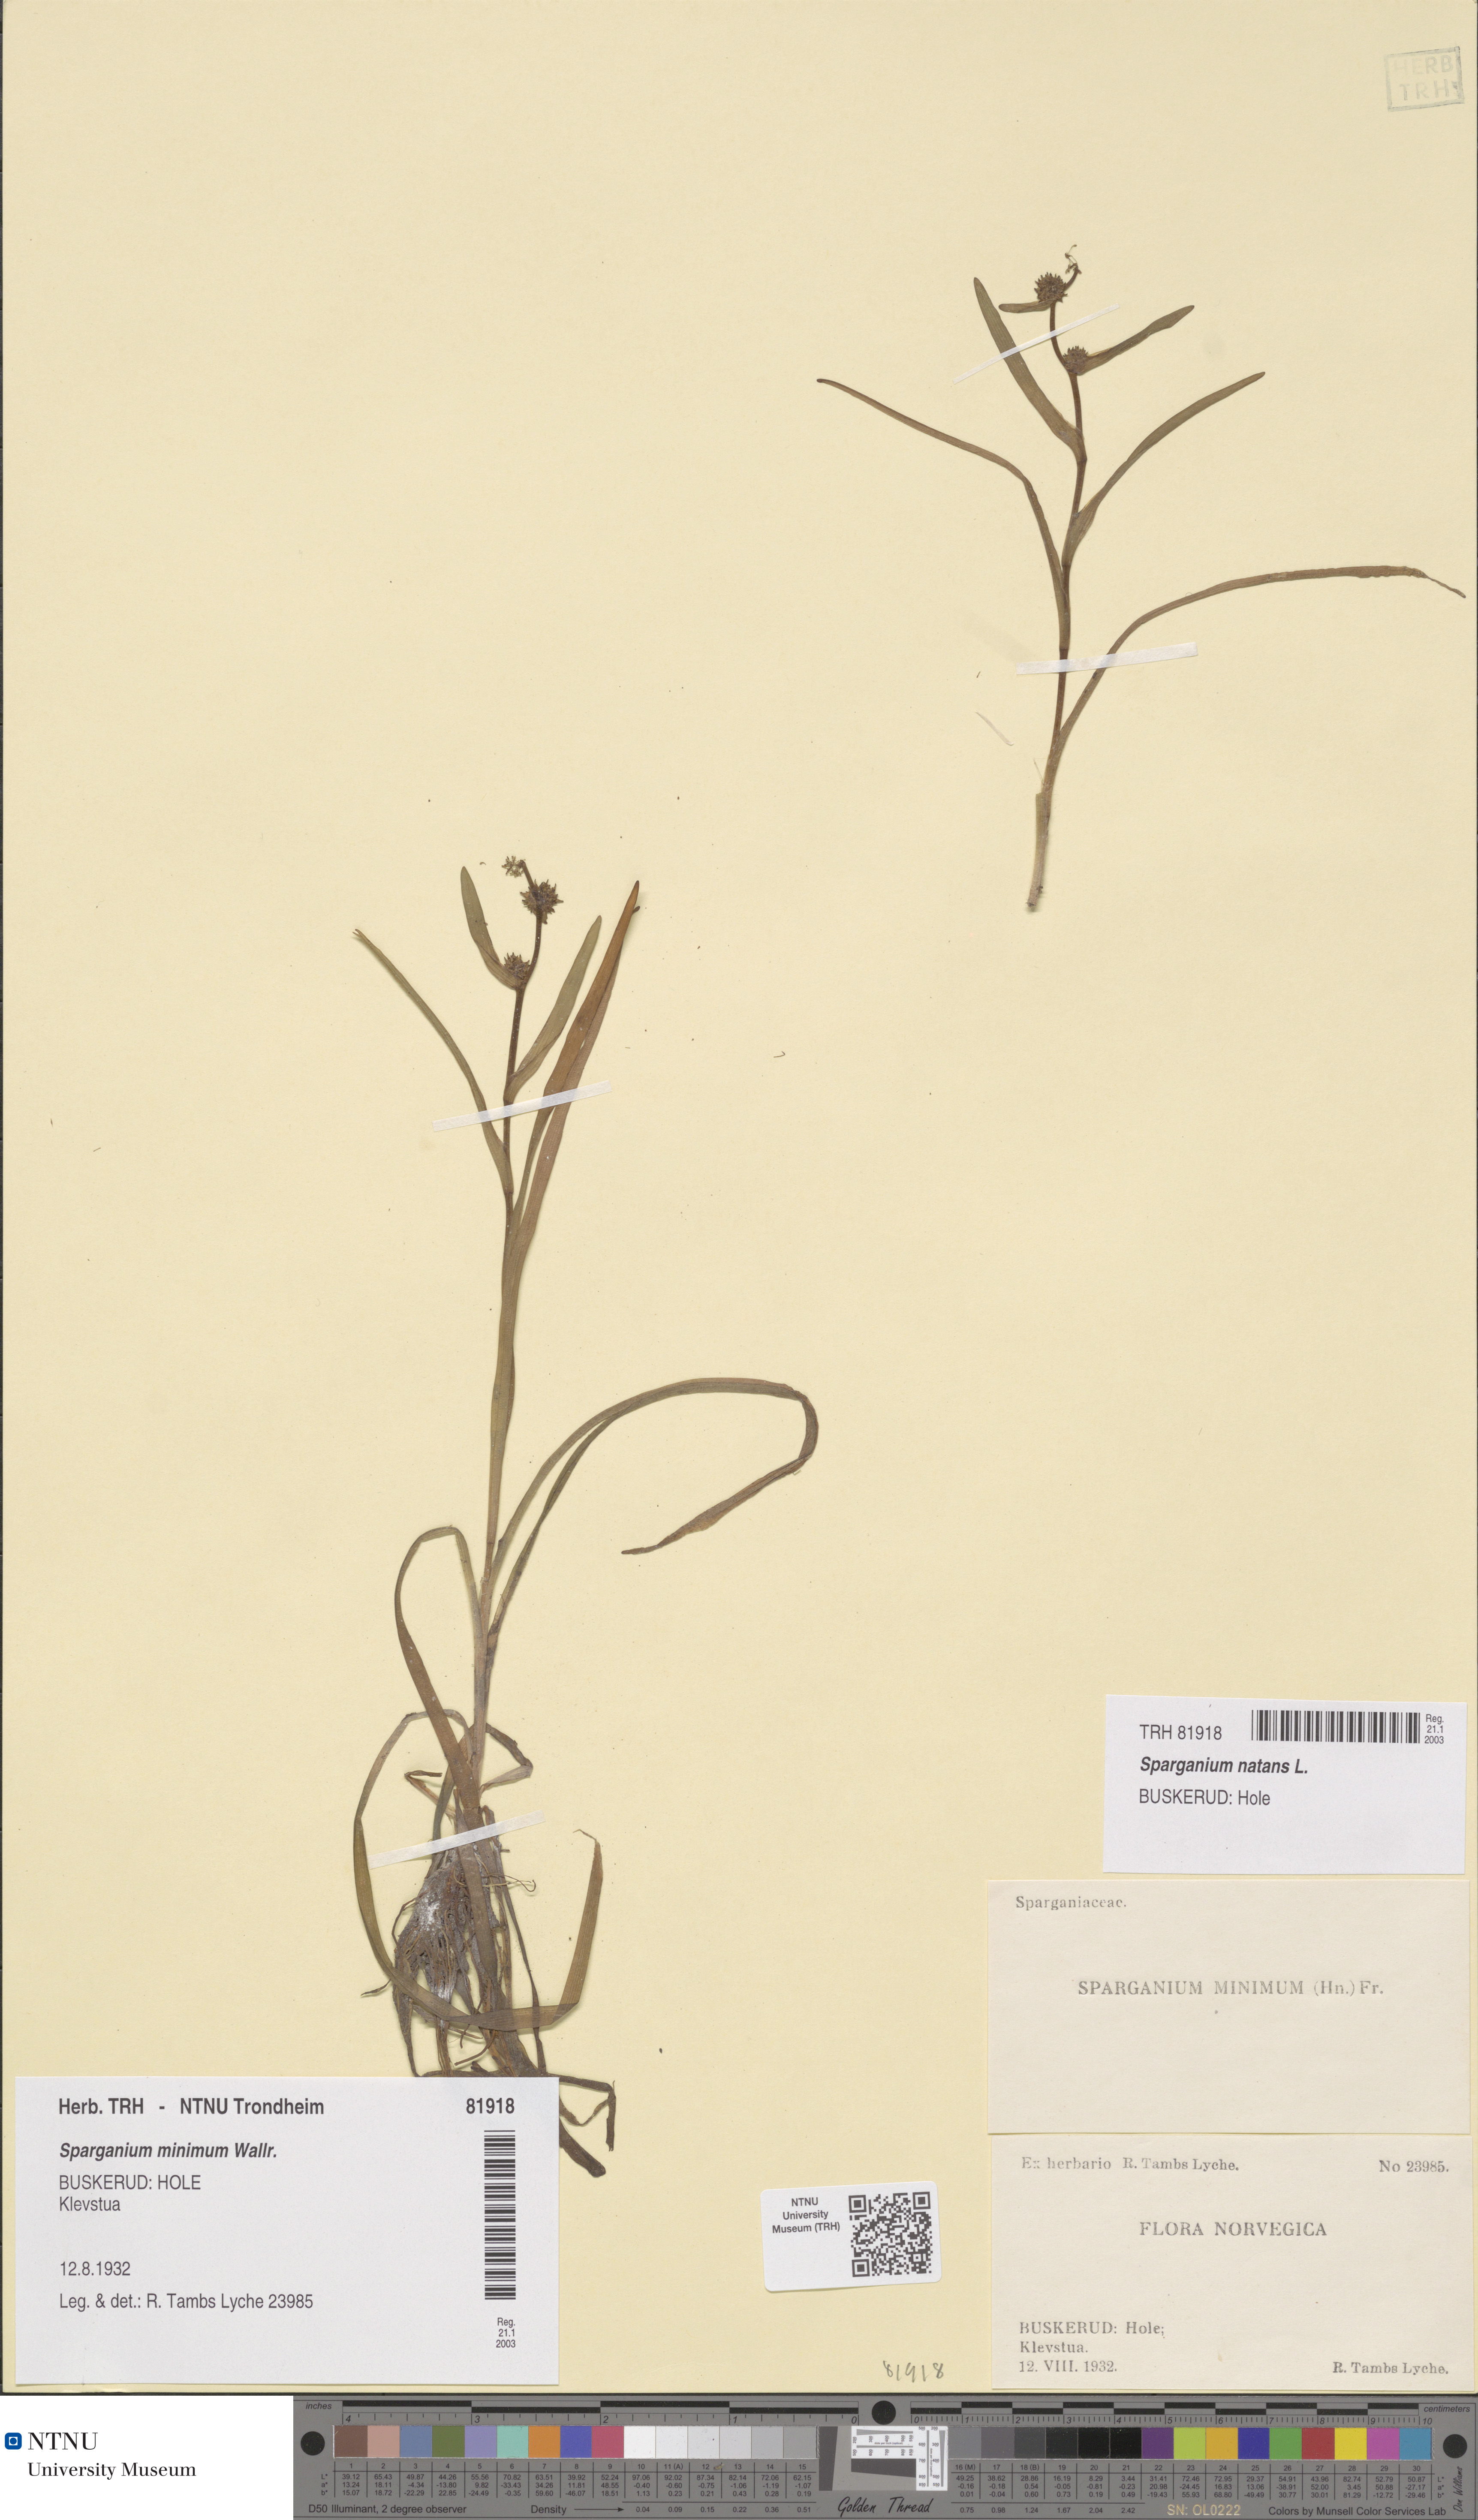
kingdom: Plantae
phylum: Tracheophyta
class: Liliopsida
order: Poales
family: Typhaceae
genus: Sparganium
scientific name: Sparganium natans
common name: Least bur-reed
